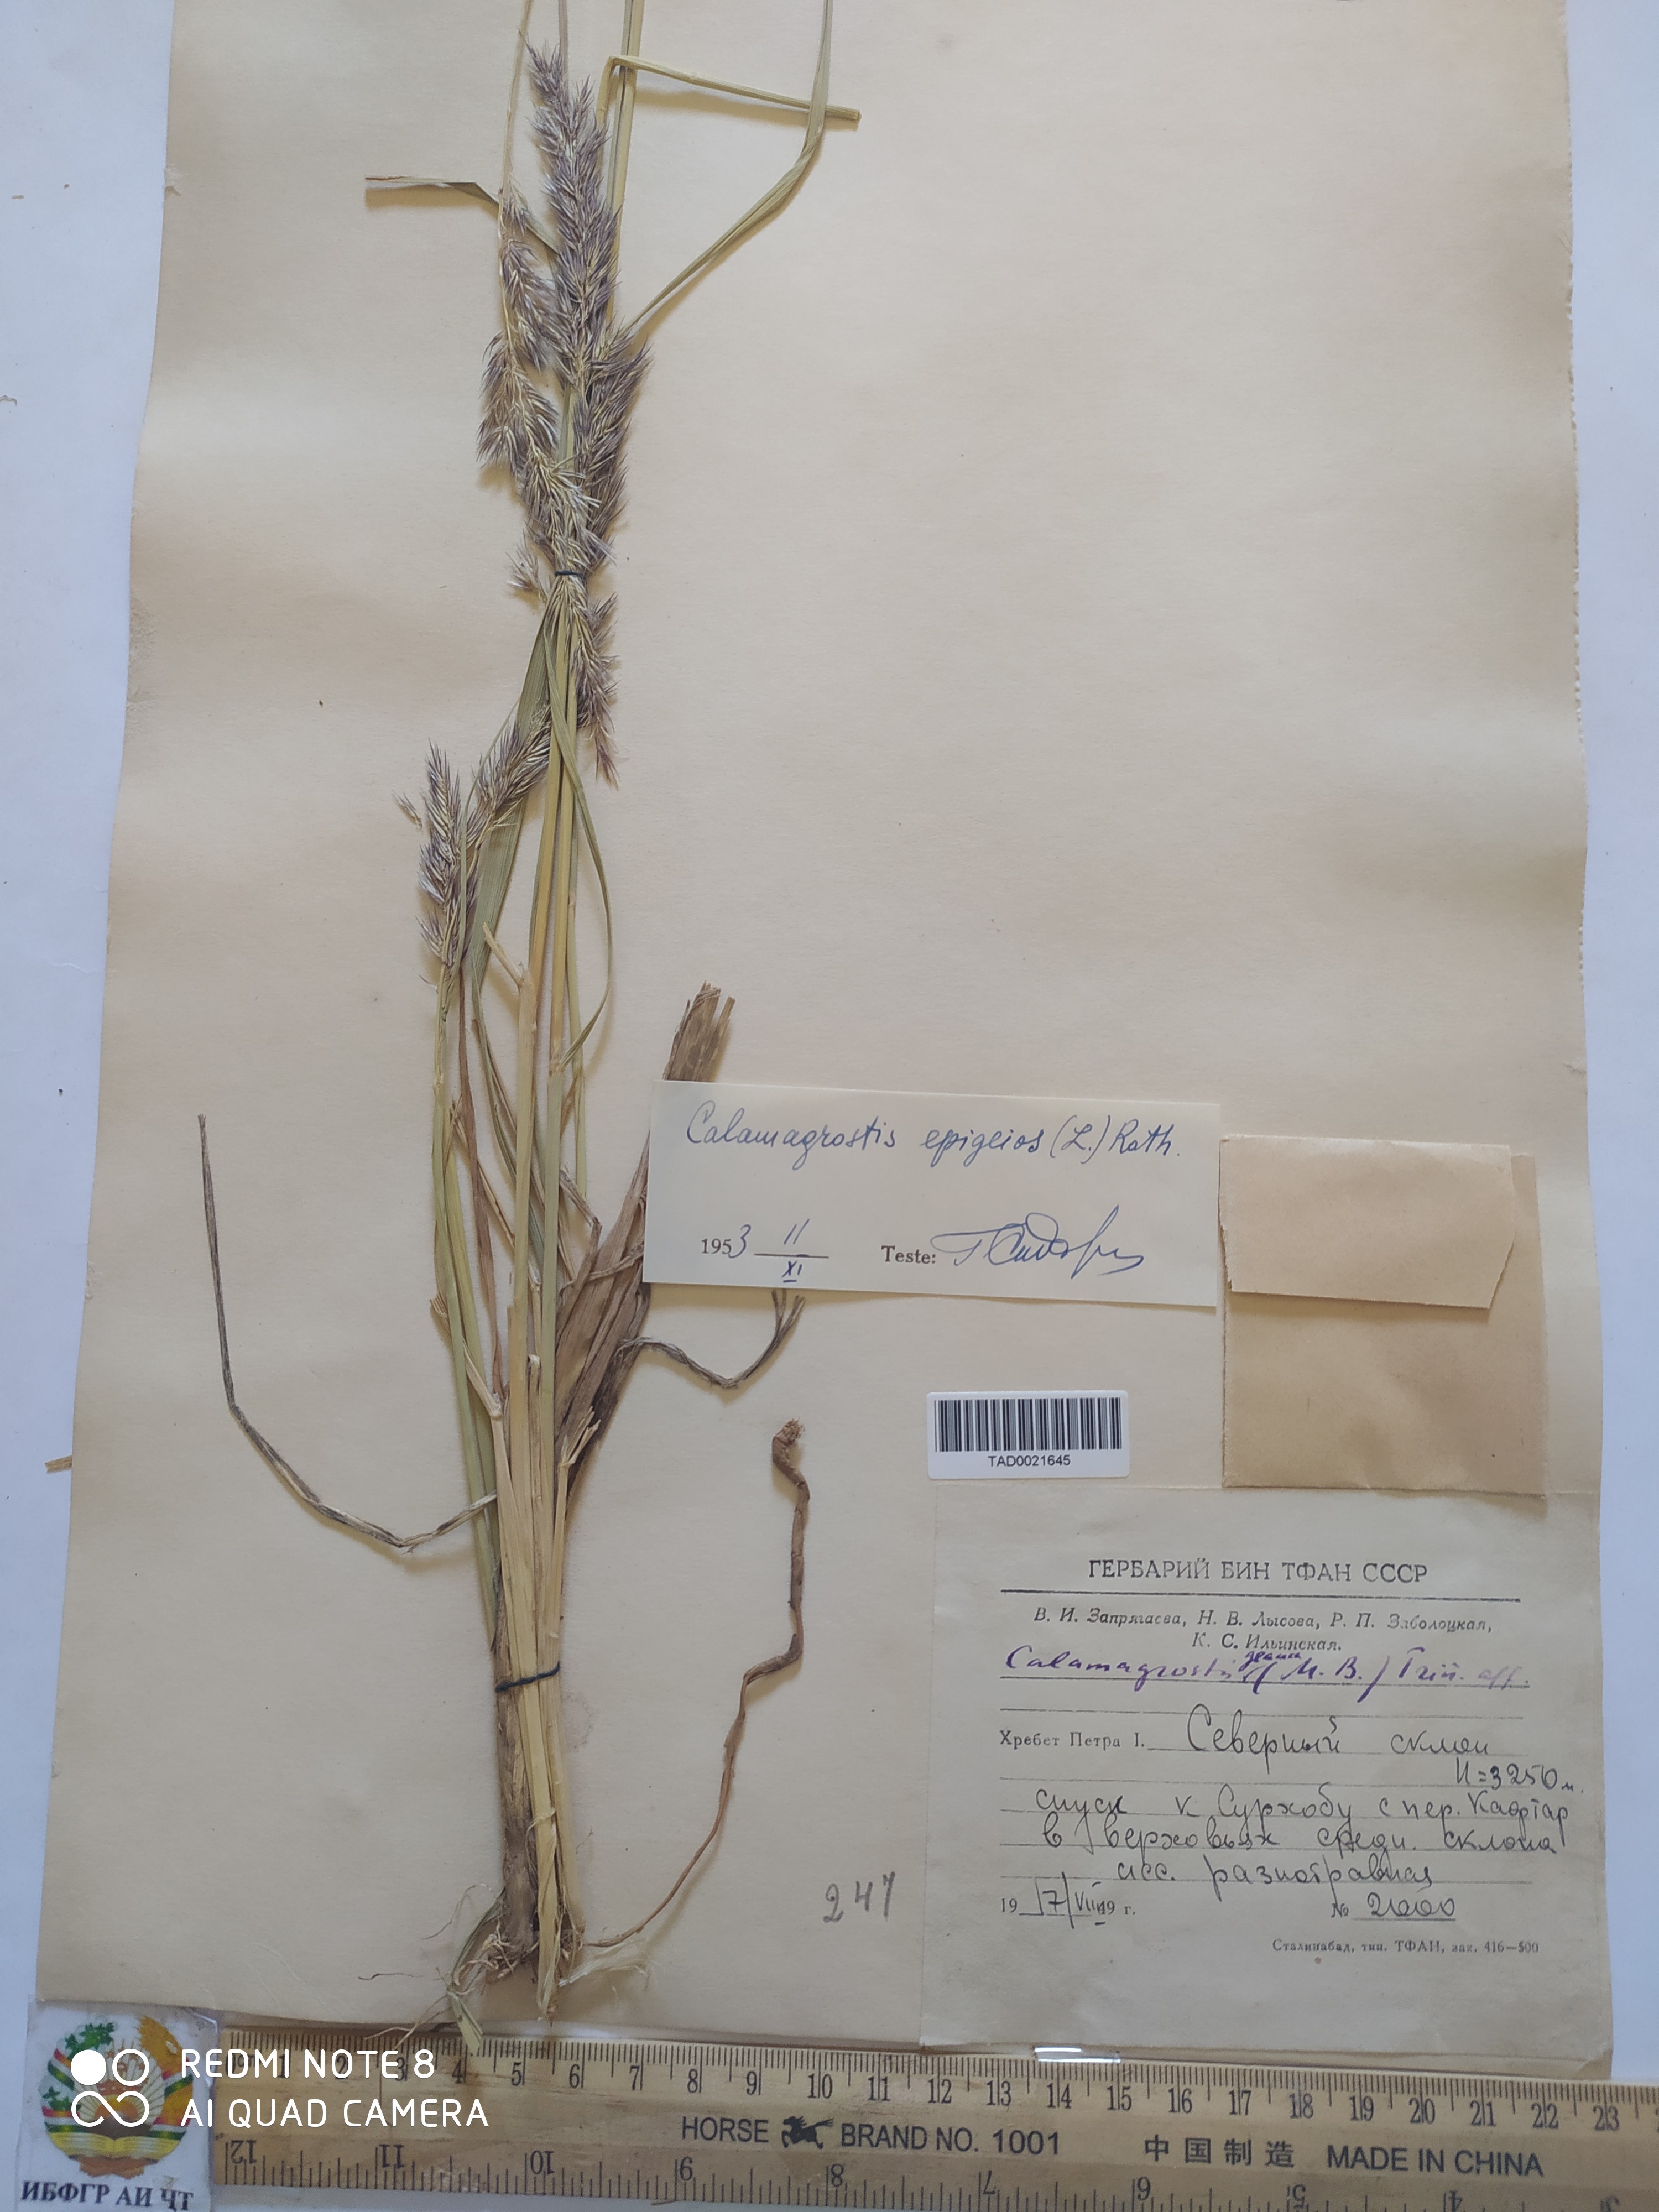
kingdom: Plantae
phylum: Tracheophyta
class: Liliopsida
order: Poales
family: Poaceae
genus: Calamagrostis
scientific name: Calamagrostis epigejos
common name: Wood small-reed
